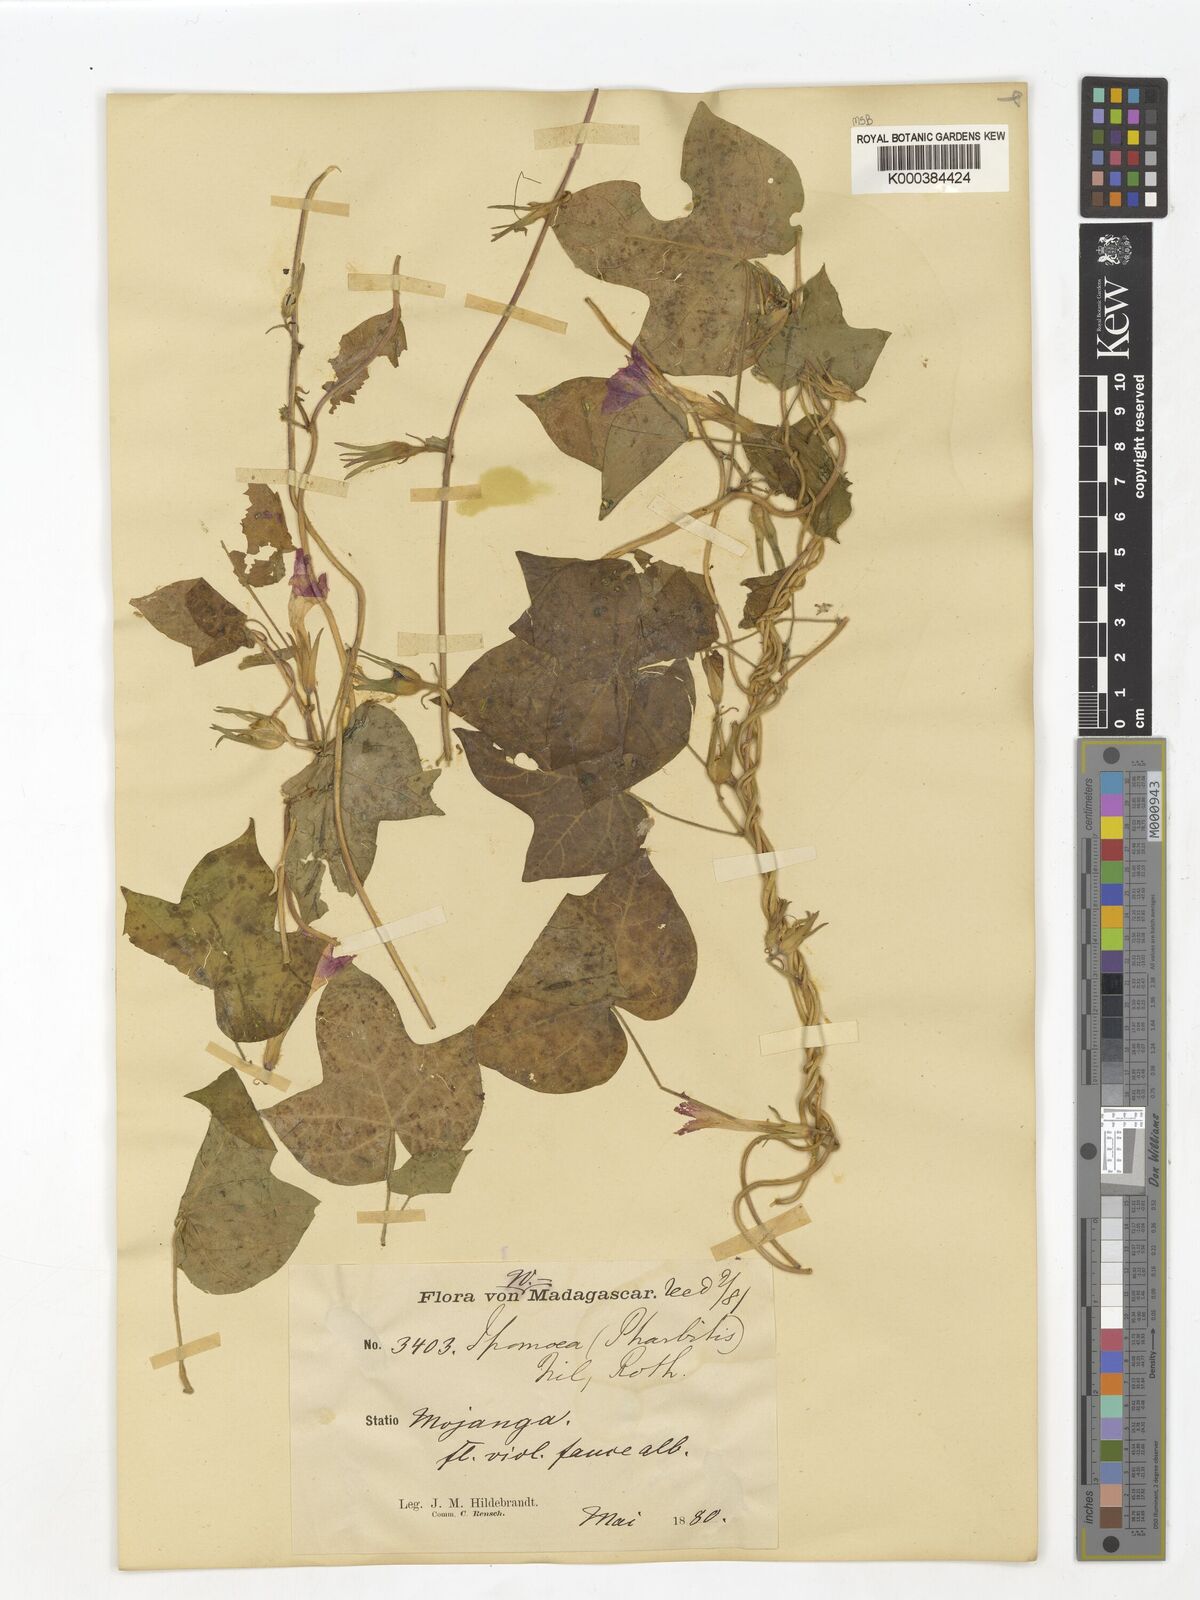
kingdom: Plantae
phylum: Tracheophyta
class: Magnoliopsida
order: Solanales
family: Convolvulaceae
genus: Ipomoea
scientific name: Ipomoea nil
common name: Japanese morning-glory
